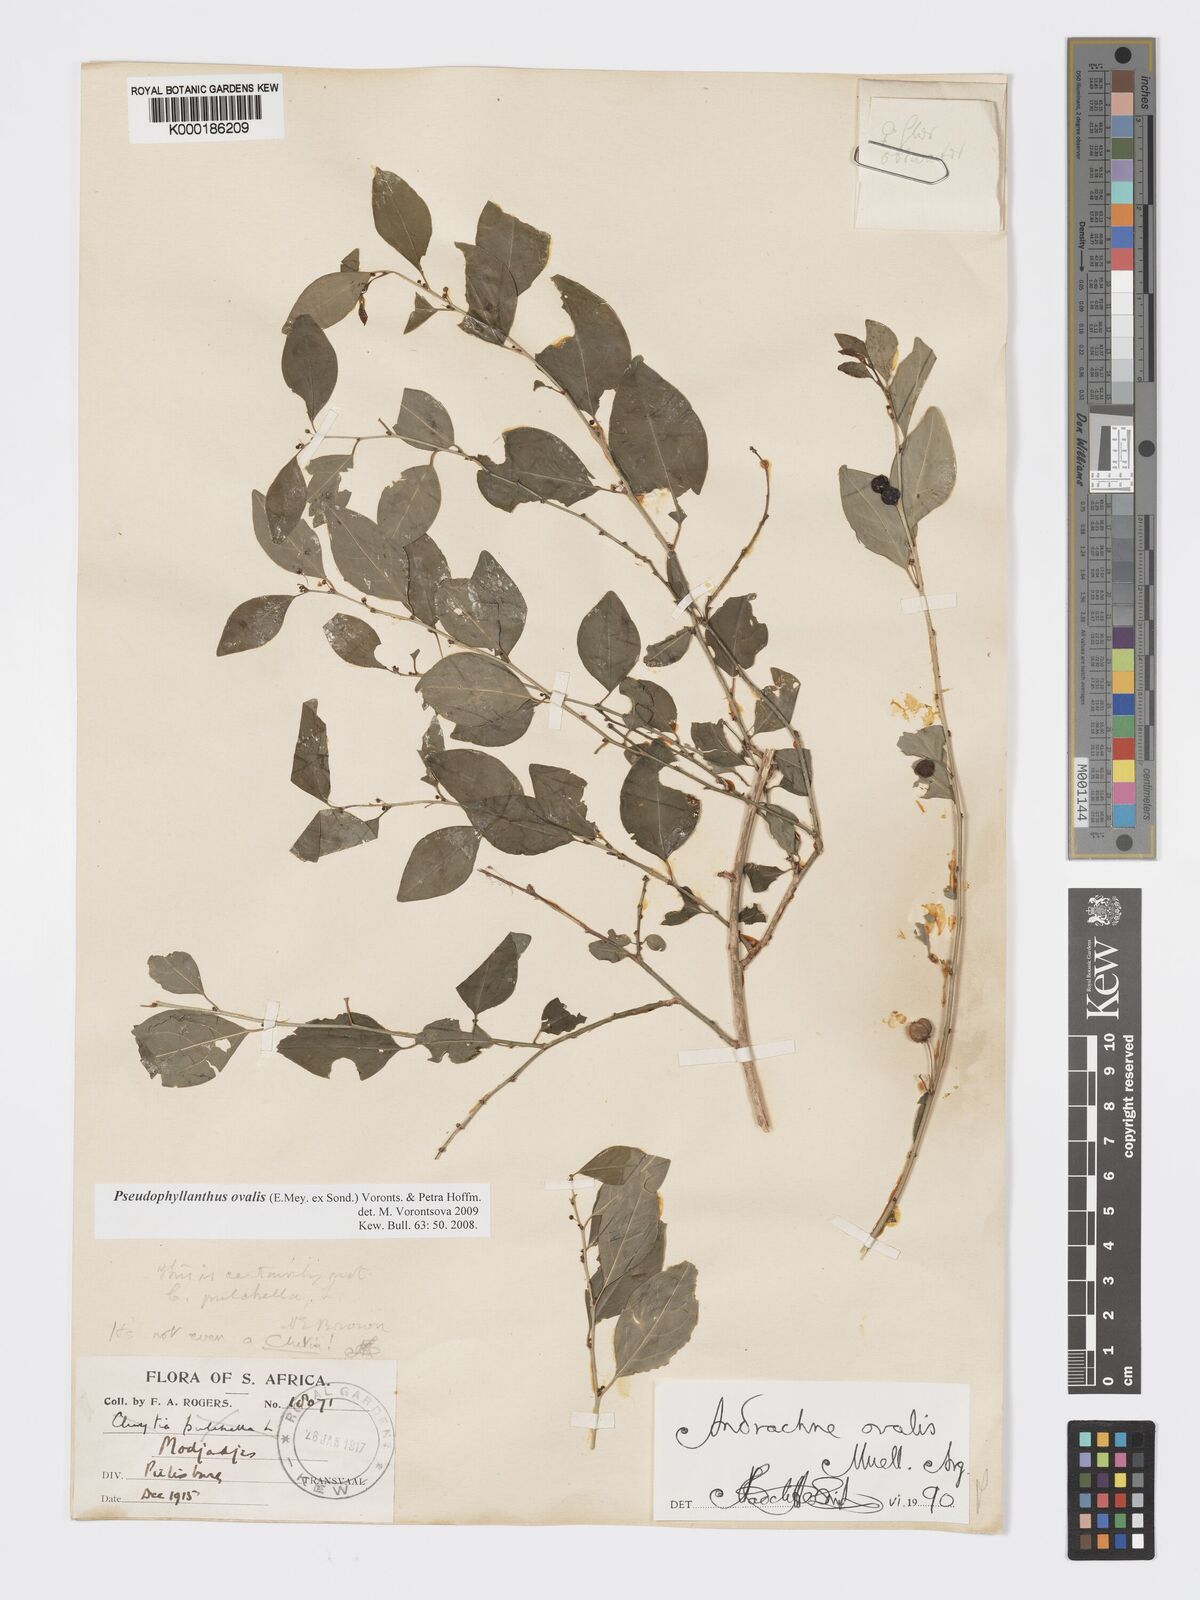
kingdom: Plantae
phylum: Tracheophyta
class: Magnoliopsida
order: Malpighiales
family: Phyllanthaceae
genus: Pseudophyllanthus
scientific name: Pseudophyllanthus ovalis
